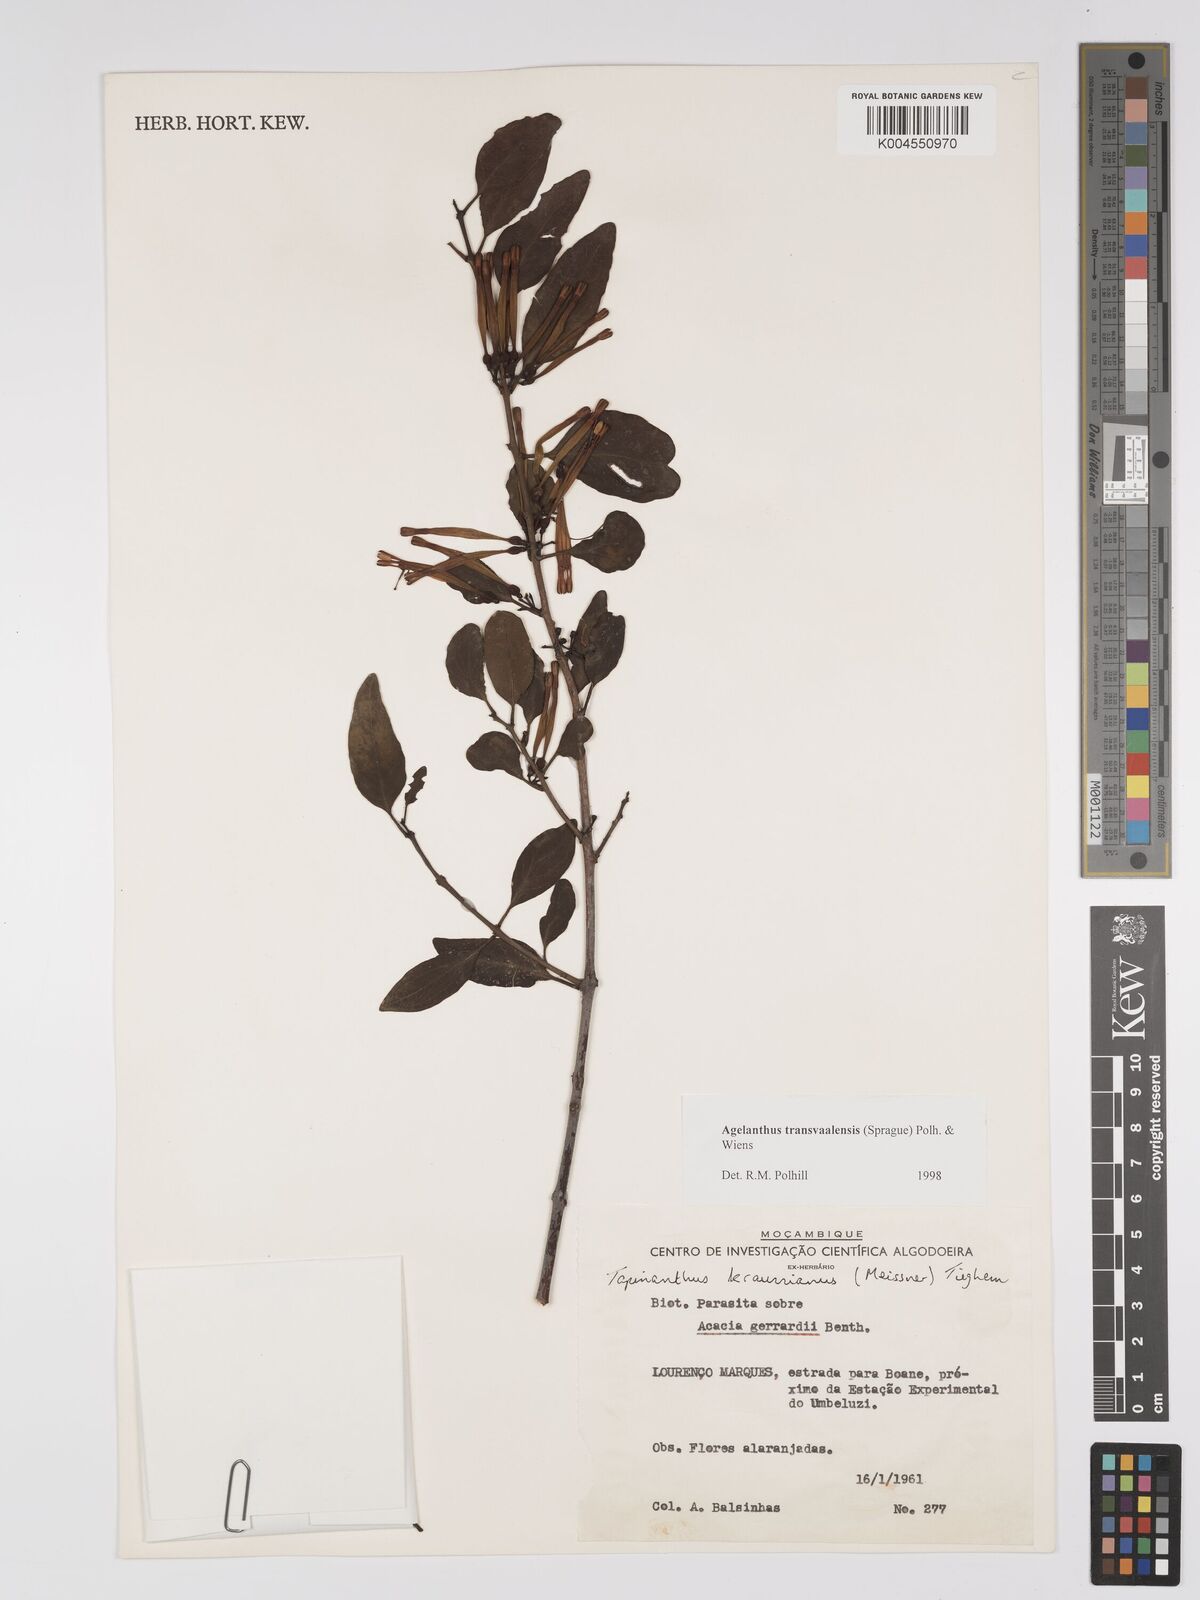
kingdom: Plantae
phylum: Tracheophyta
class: Magnoliopsida
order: Santalales
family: Loranthaceae
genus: Agelanthus
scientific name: Agelanthus transvaalensis
